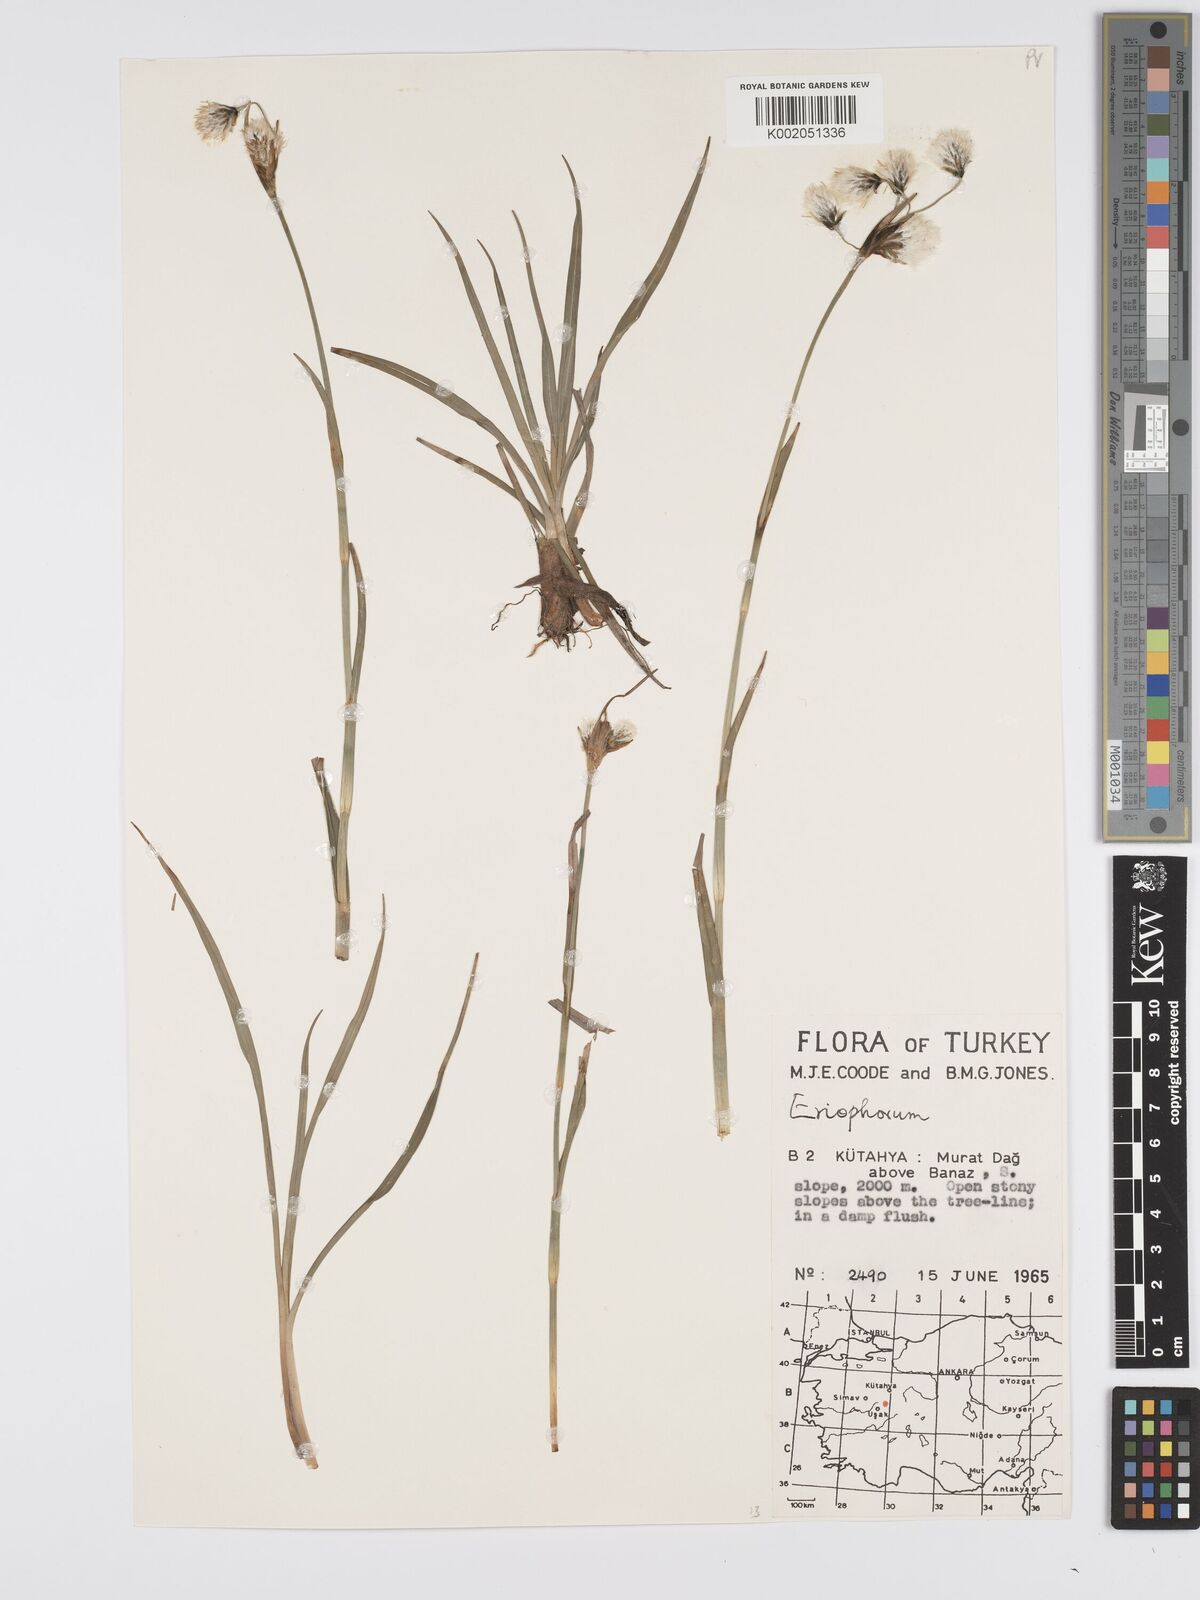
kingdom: Plantae
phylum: Tracheophyta
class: Liliopsida
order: Poales
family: Cyperaceae
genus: Eriophorum
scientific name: Eriophorum latifolium
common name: Broad-leaved cottongrass
